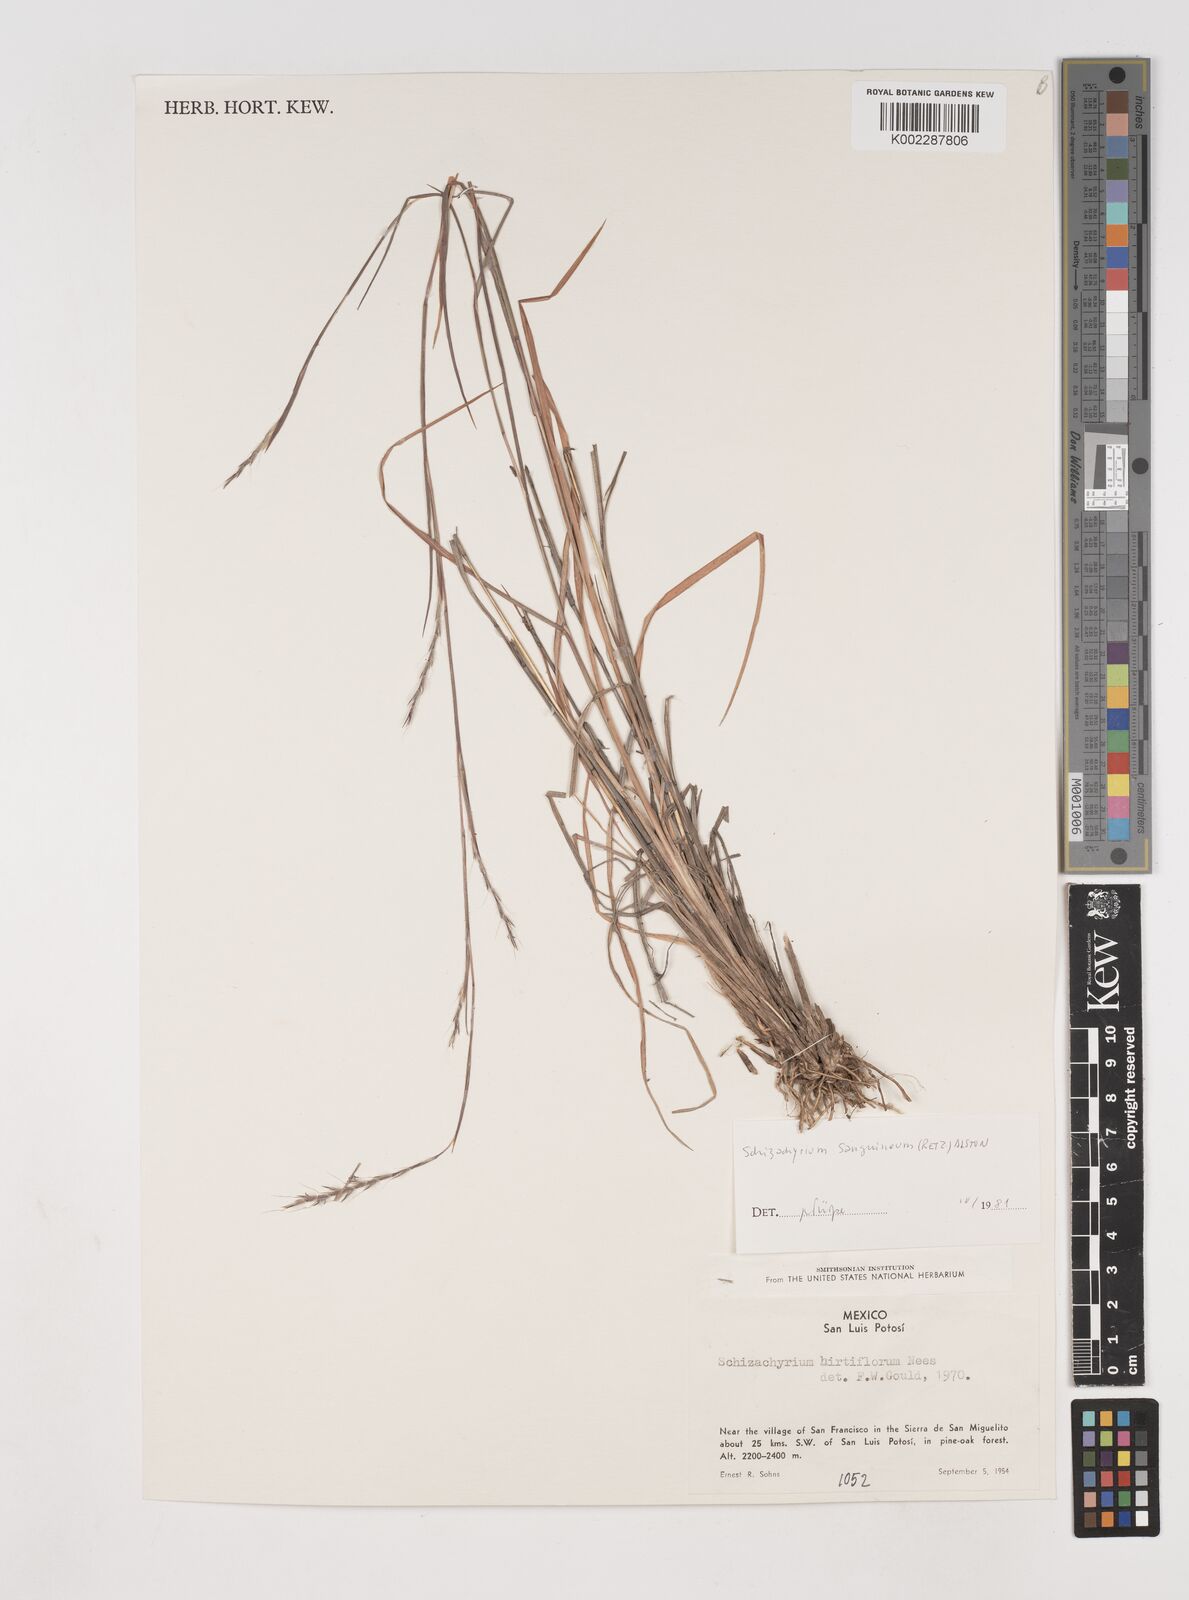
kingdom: Plantae
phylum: Tracheophyta
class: Liliopsida
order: Poales
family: Poaceae
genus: Schizachyrium
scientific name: Schizachyrium sanguineum
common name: Crimson bluestem
